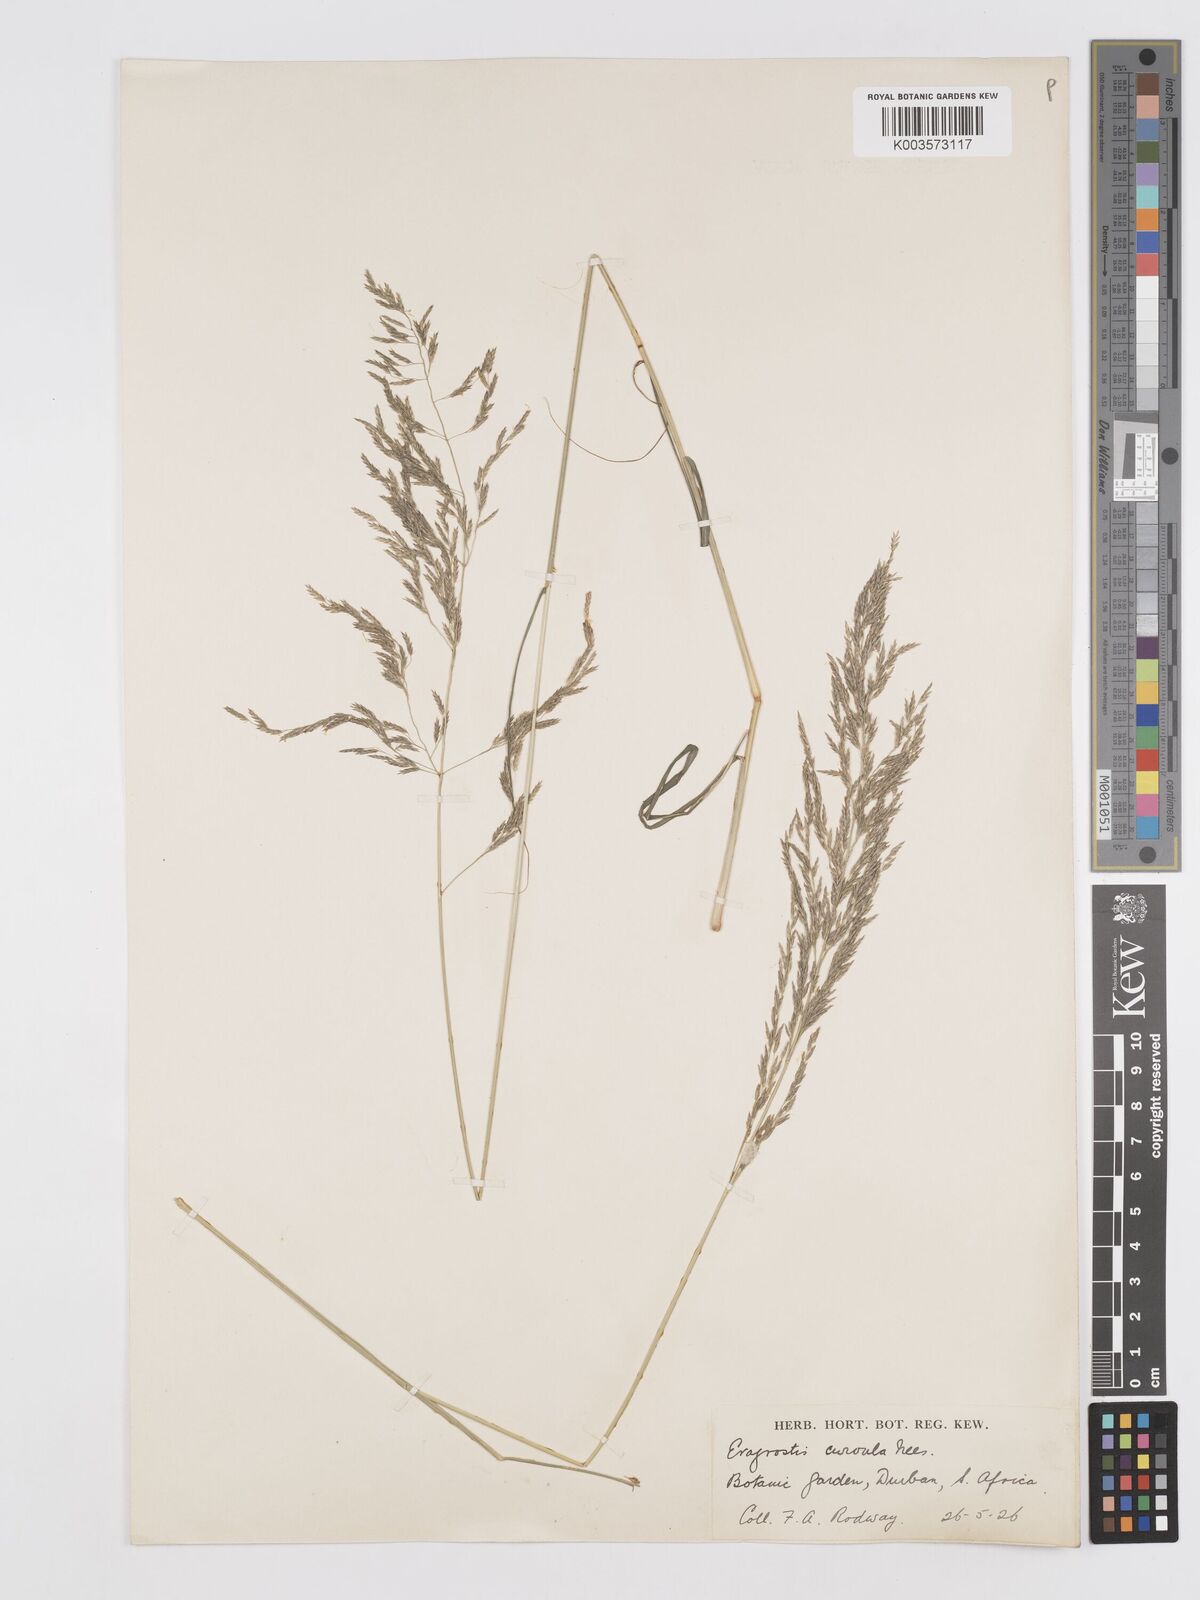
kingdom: Plantae
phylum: Tracheophyta
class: Liliopsida
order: Poales
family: Poaceae
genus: Eragrostis
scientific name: Eragrostis curvula
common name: African love-grass
